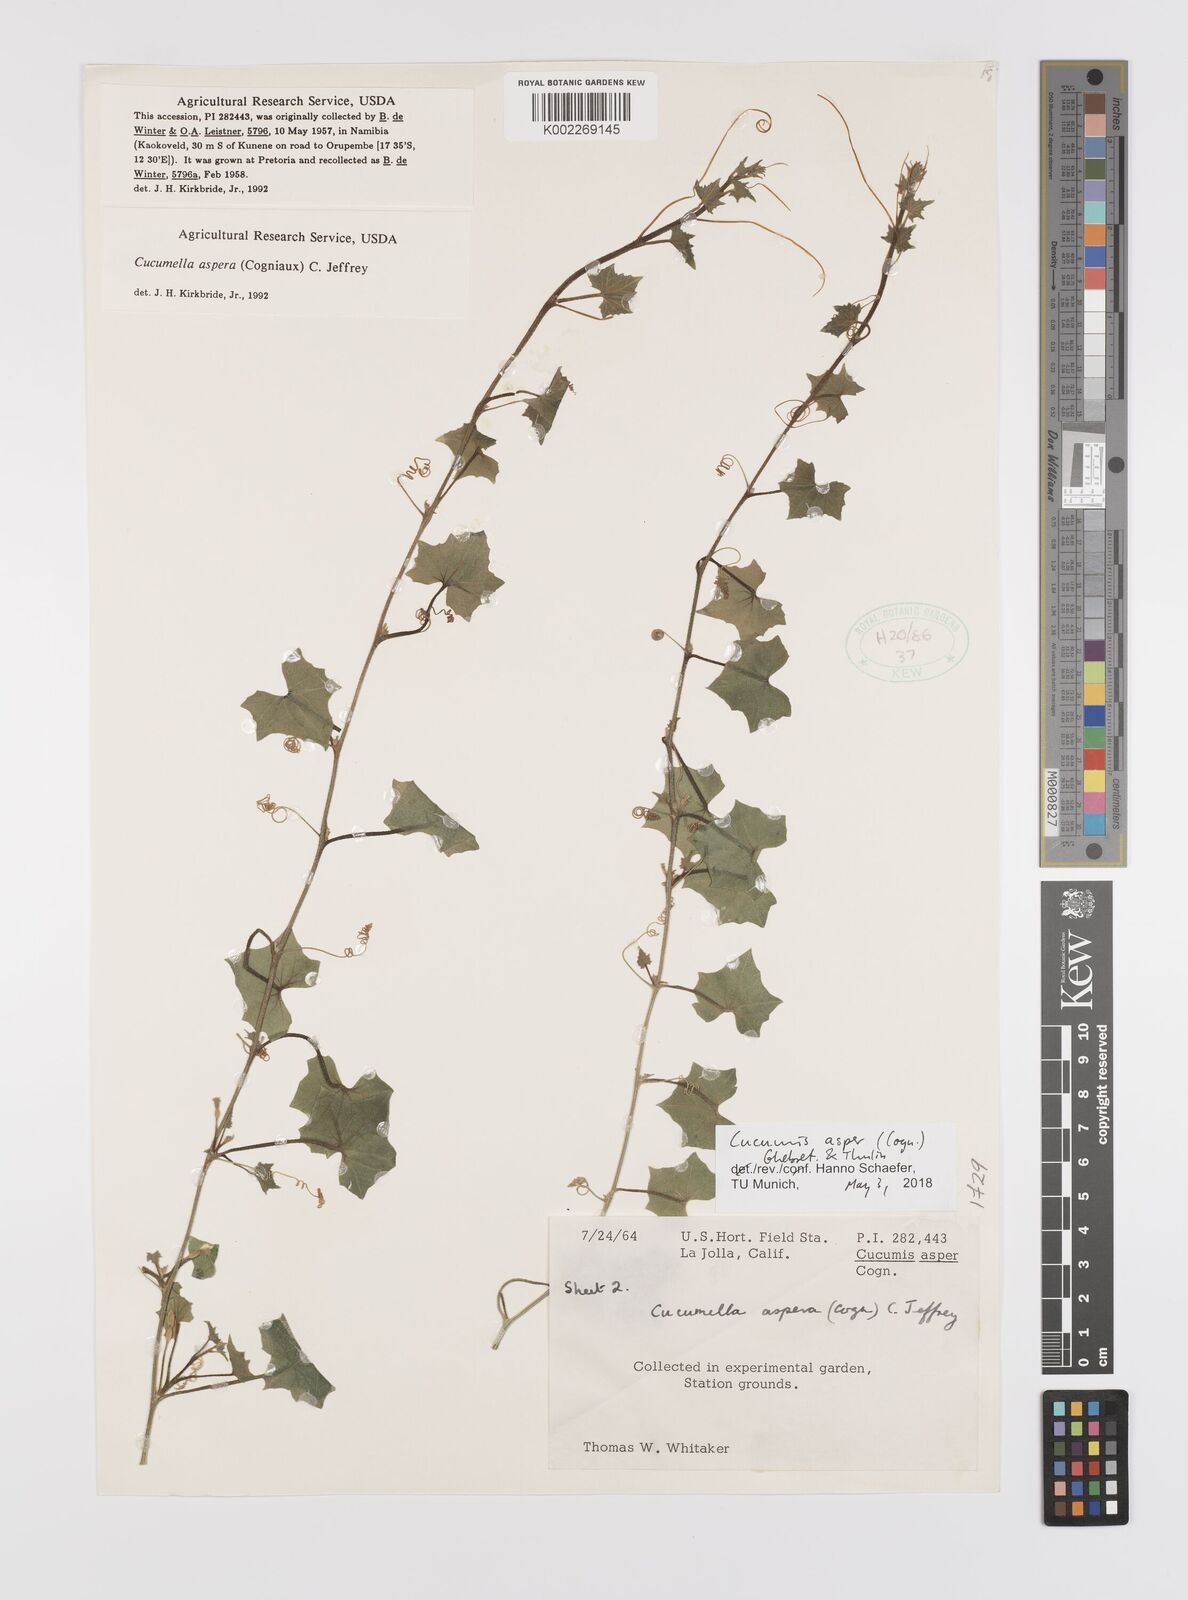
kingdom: Plantae
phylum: Tracheophyta
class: Magnoliopsida
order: Cucurbitales
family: Cucurbitaceae
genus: Cucumis
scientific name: Cucumis asper
